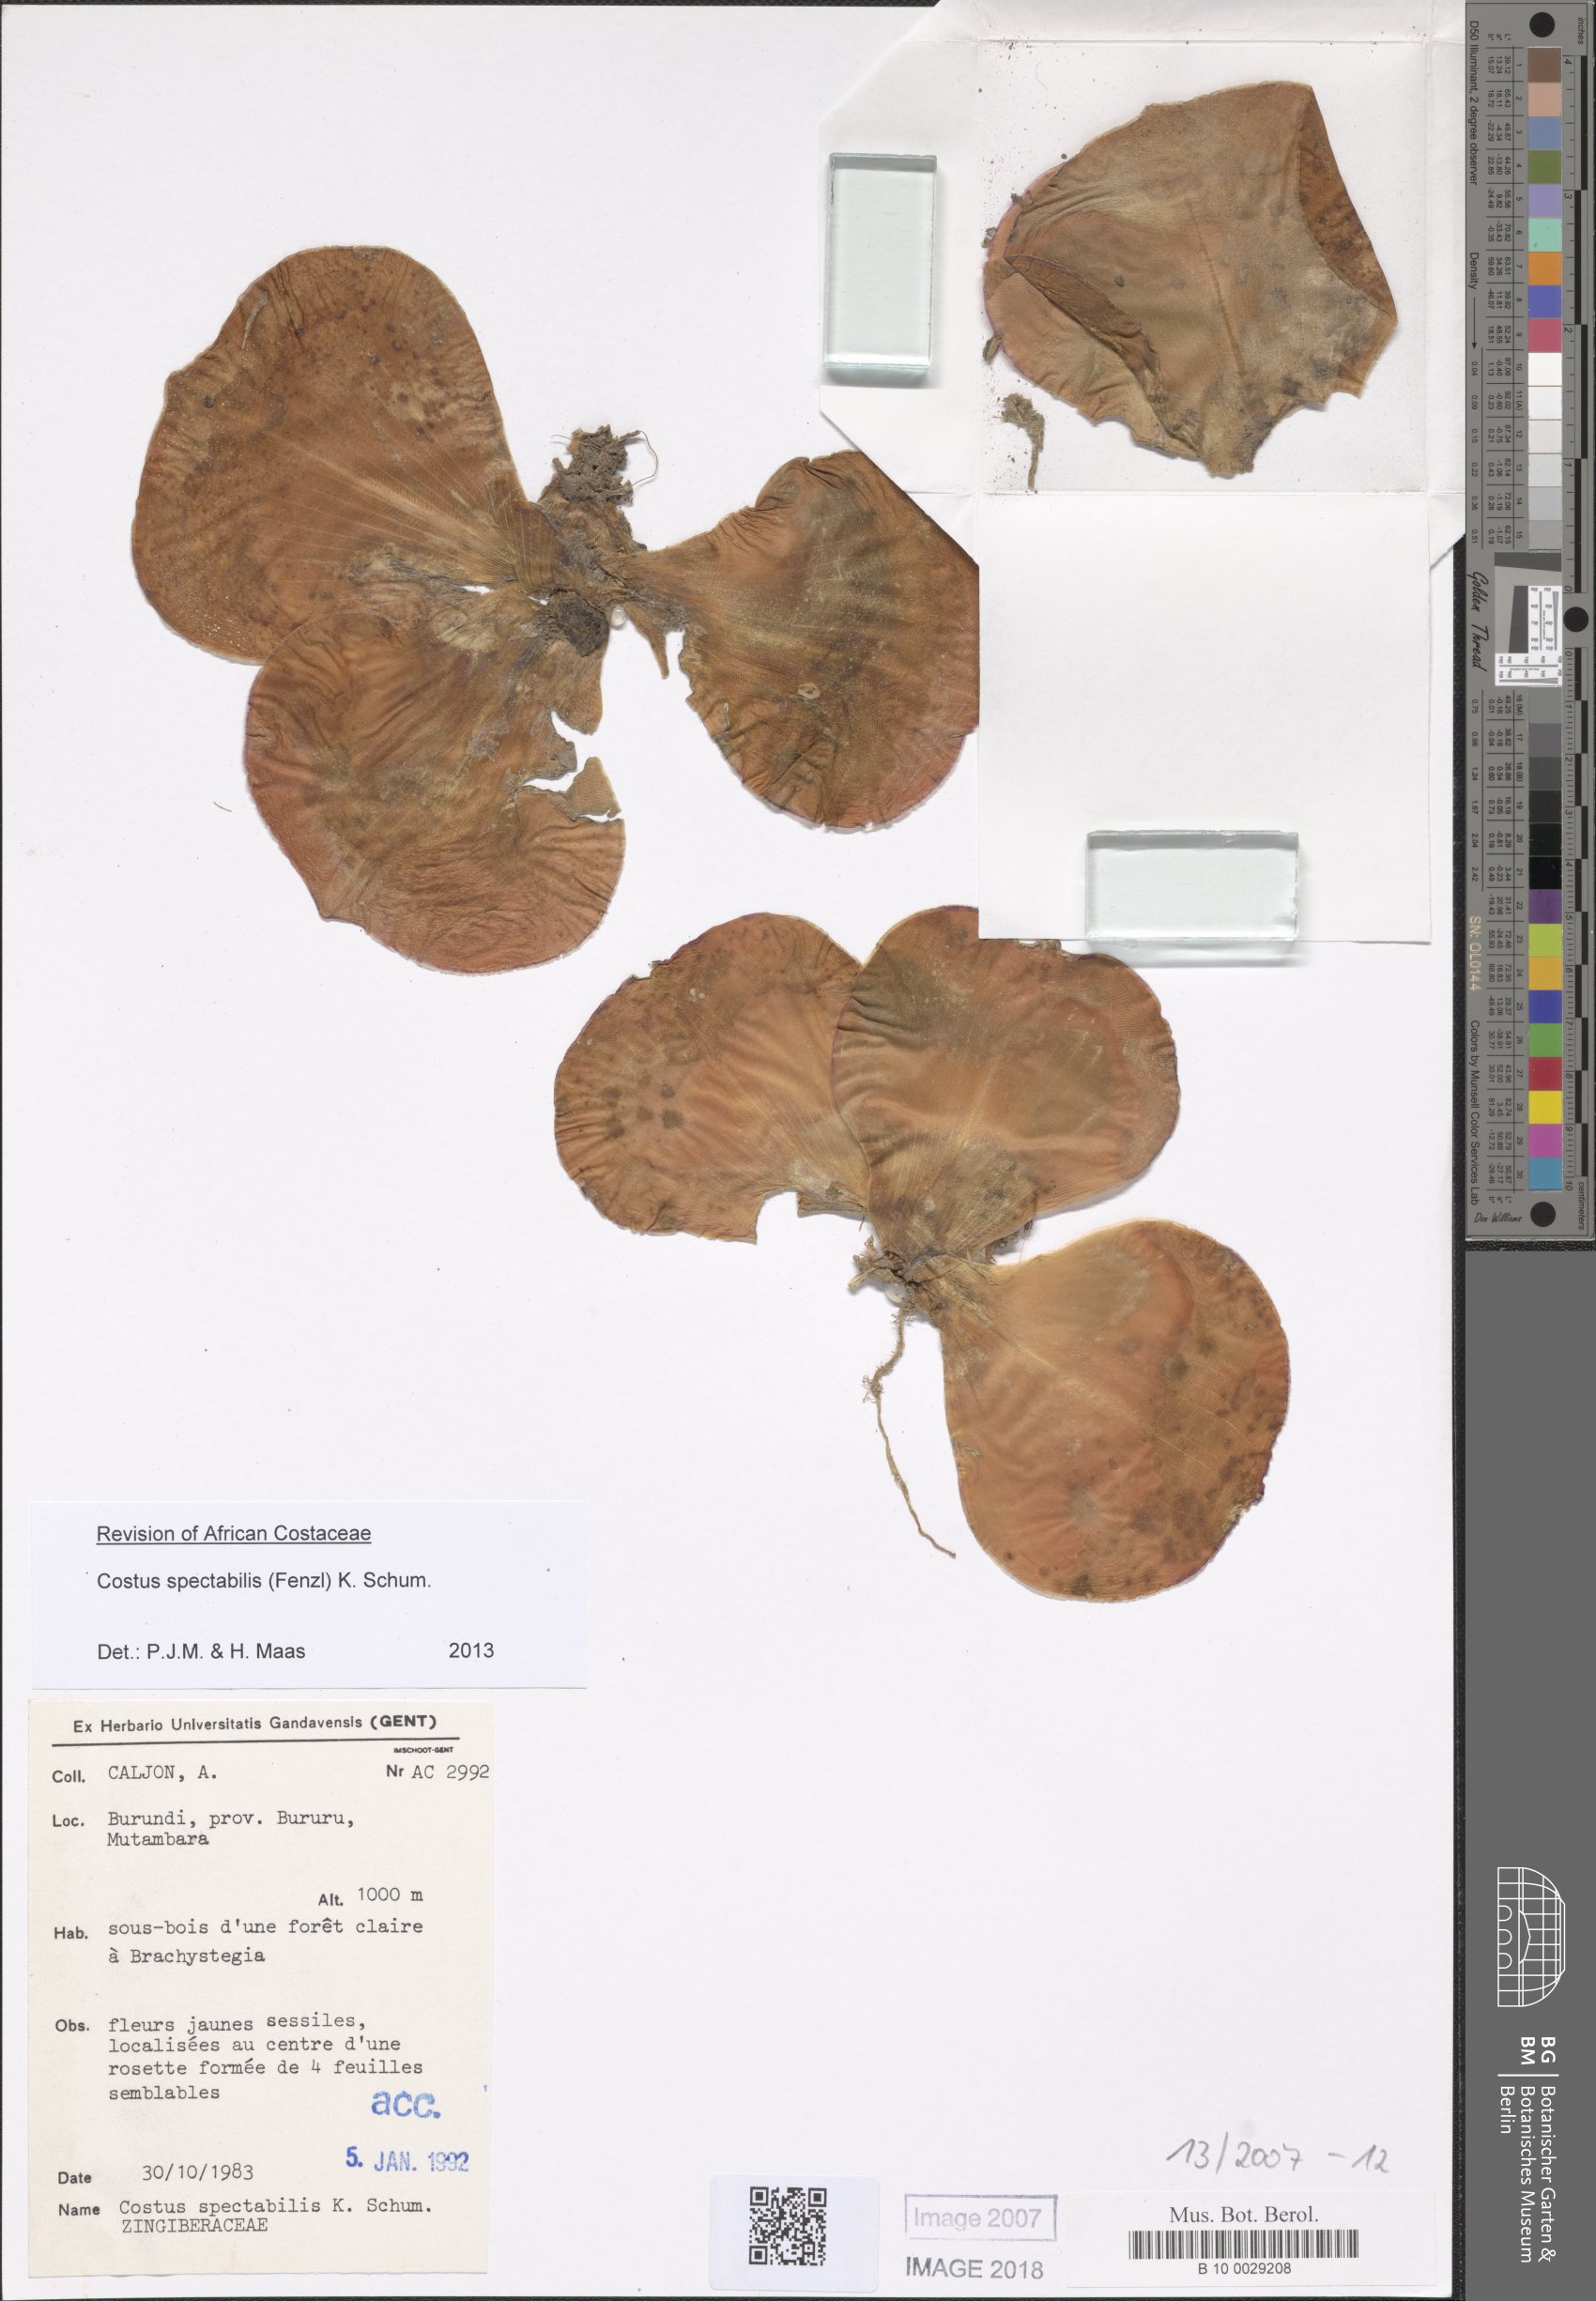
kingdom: Plantae
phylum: Tracheophyta
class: Liliopsida
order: Zingiberales
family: Costaceae
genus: Costus
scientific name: Costus spectabilis
